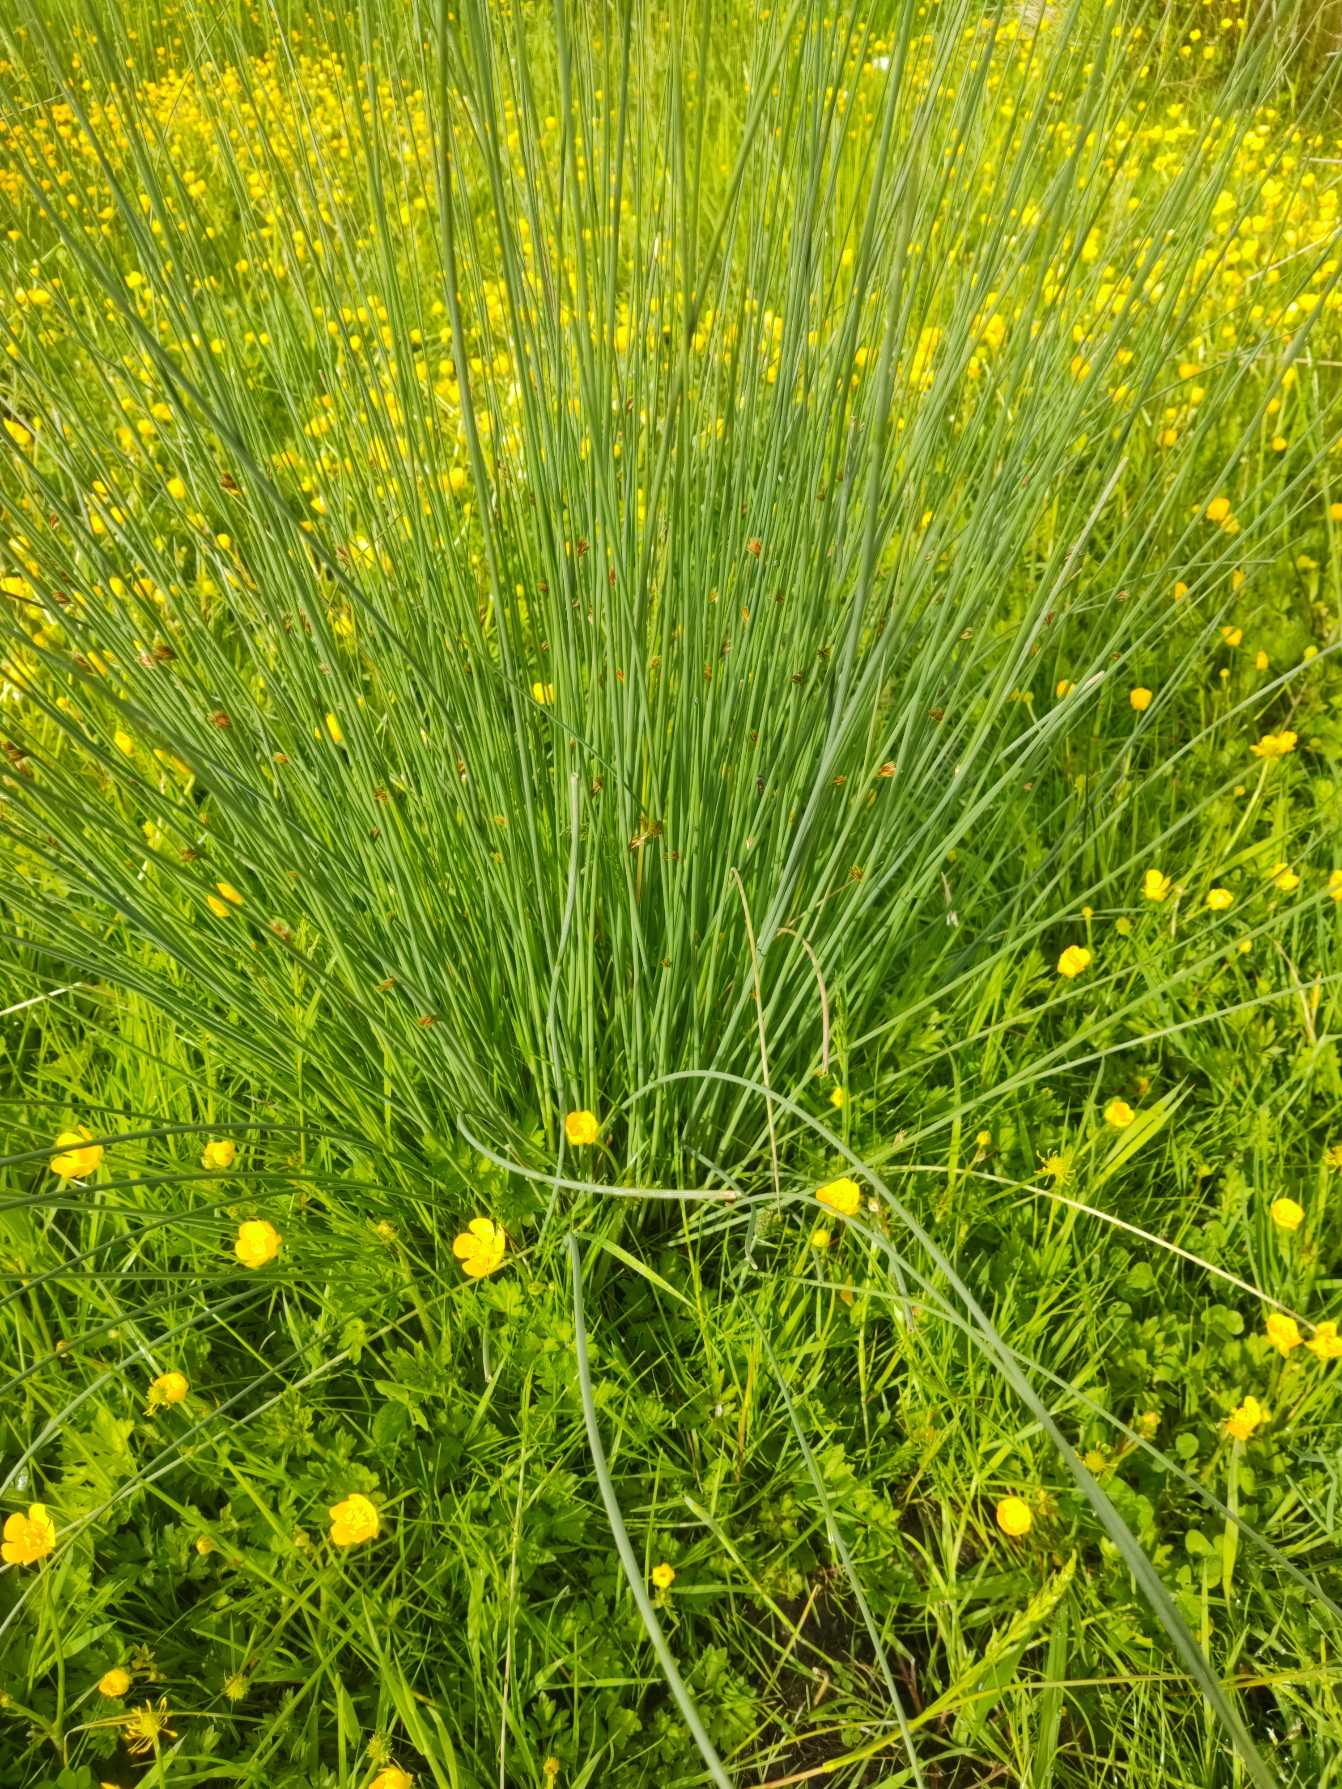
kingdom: Plantae
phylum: Tracheophyta
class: Liliopsida
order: Poales
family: Juncaceae
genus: Juncus
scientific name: Juncus inflexus
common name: Blågrå siv
